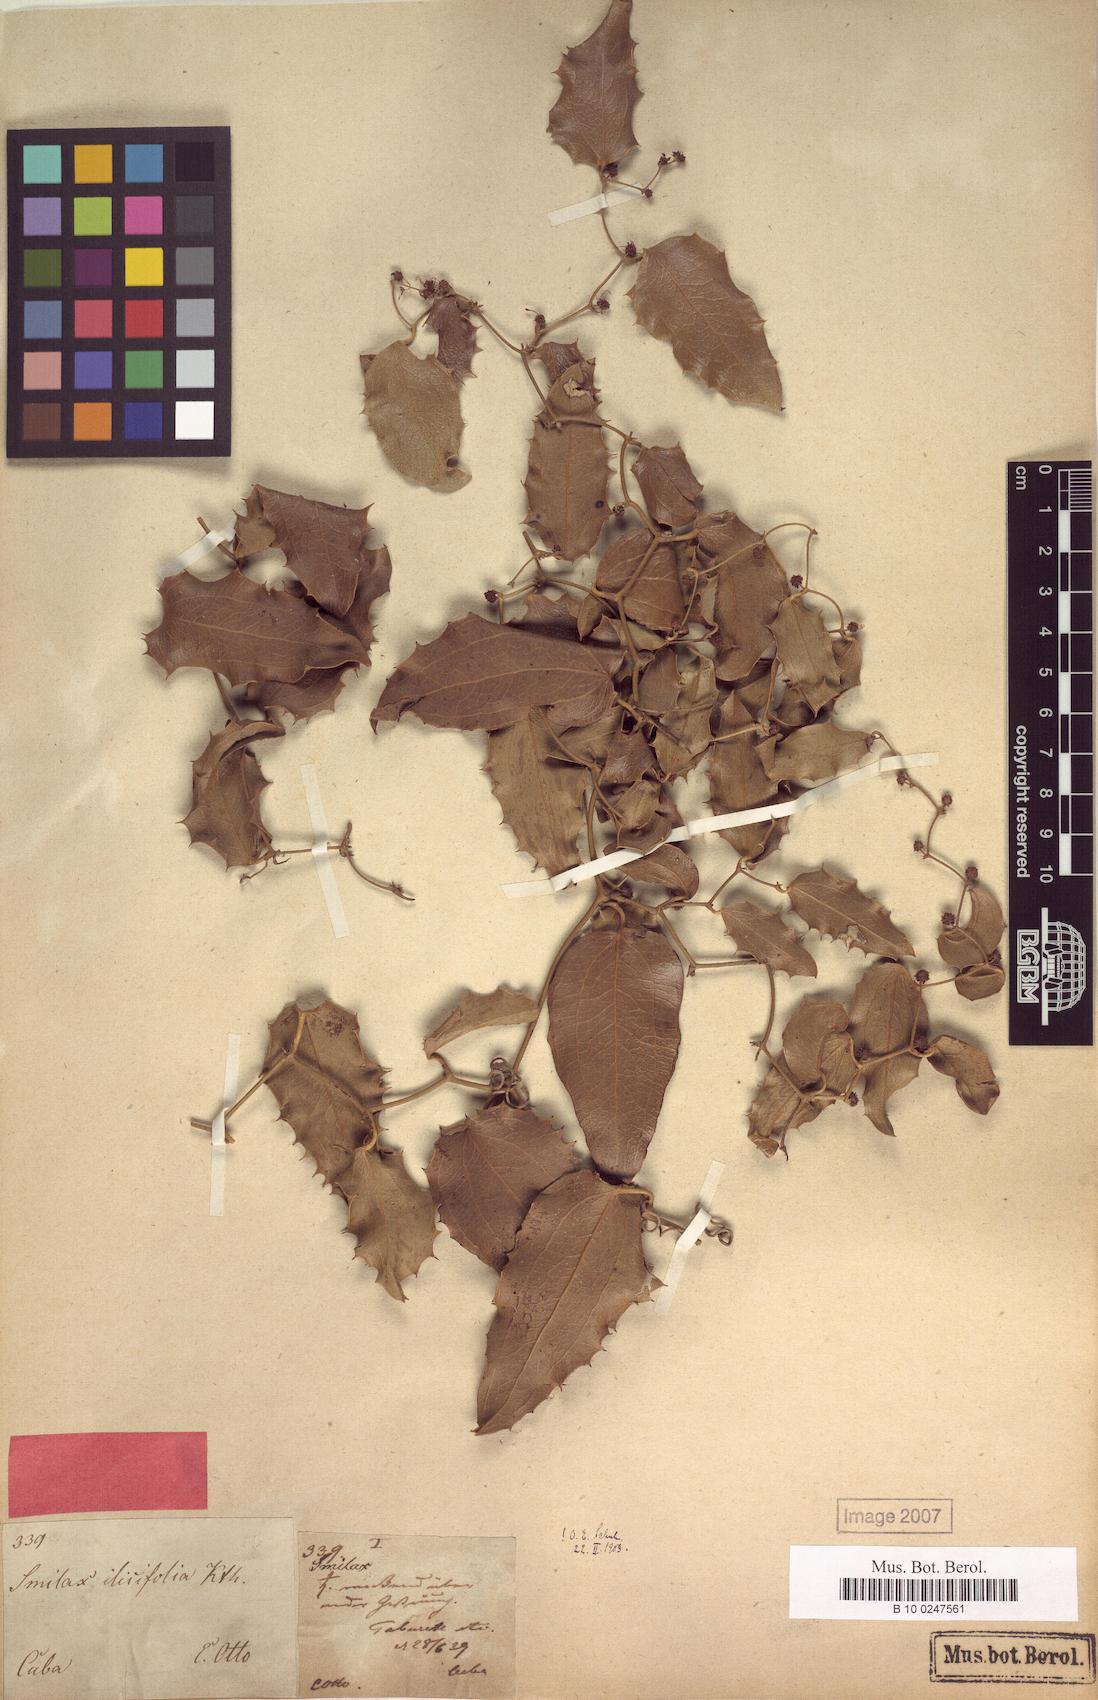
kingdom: Plantae
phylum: Tracheophyta
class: Liliopsida
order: Liliales
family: Smilacaceae
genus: Smilax
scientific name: Smilax aquifolium
